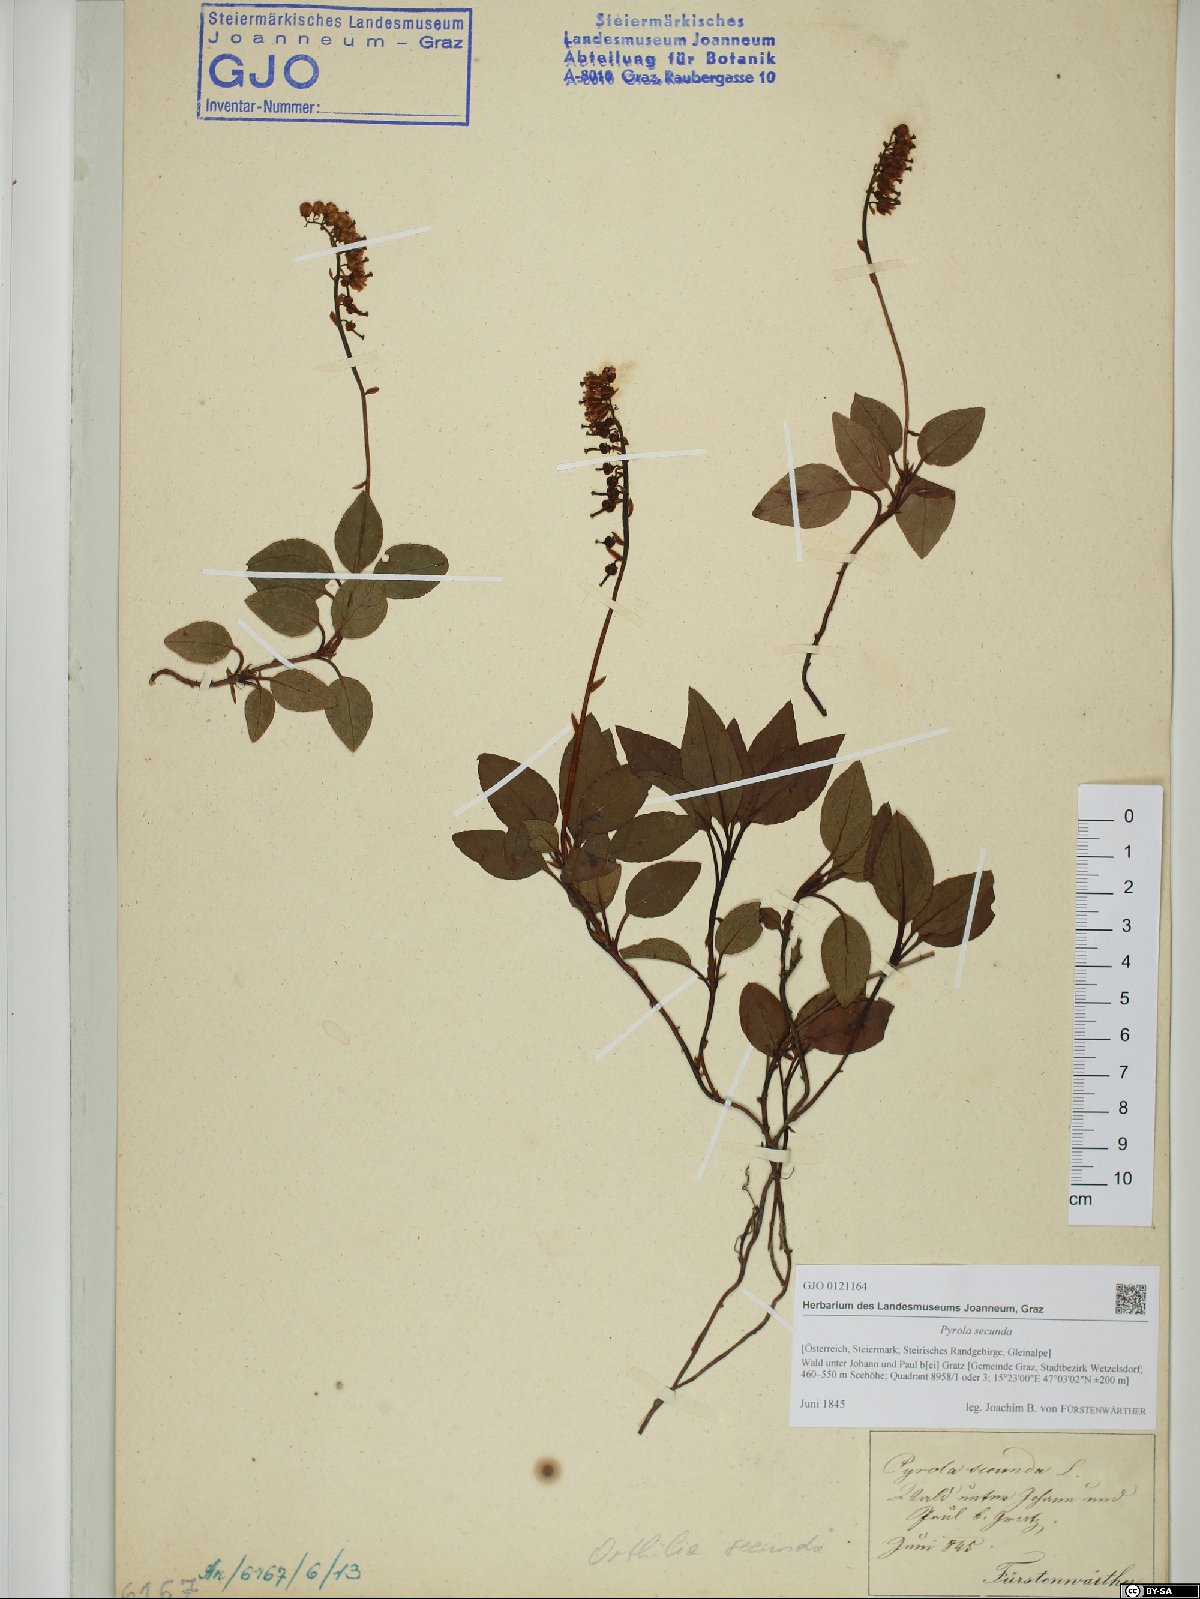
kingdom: Plantae
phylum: Tracheophyta
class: Magnoliopsida
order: Ericales
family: Ericaceae
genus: Orthilia
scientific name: Orthilia secunda
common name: One-sided orthilia
